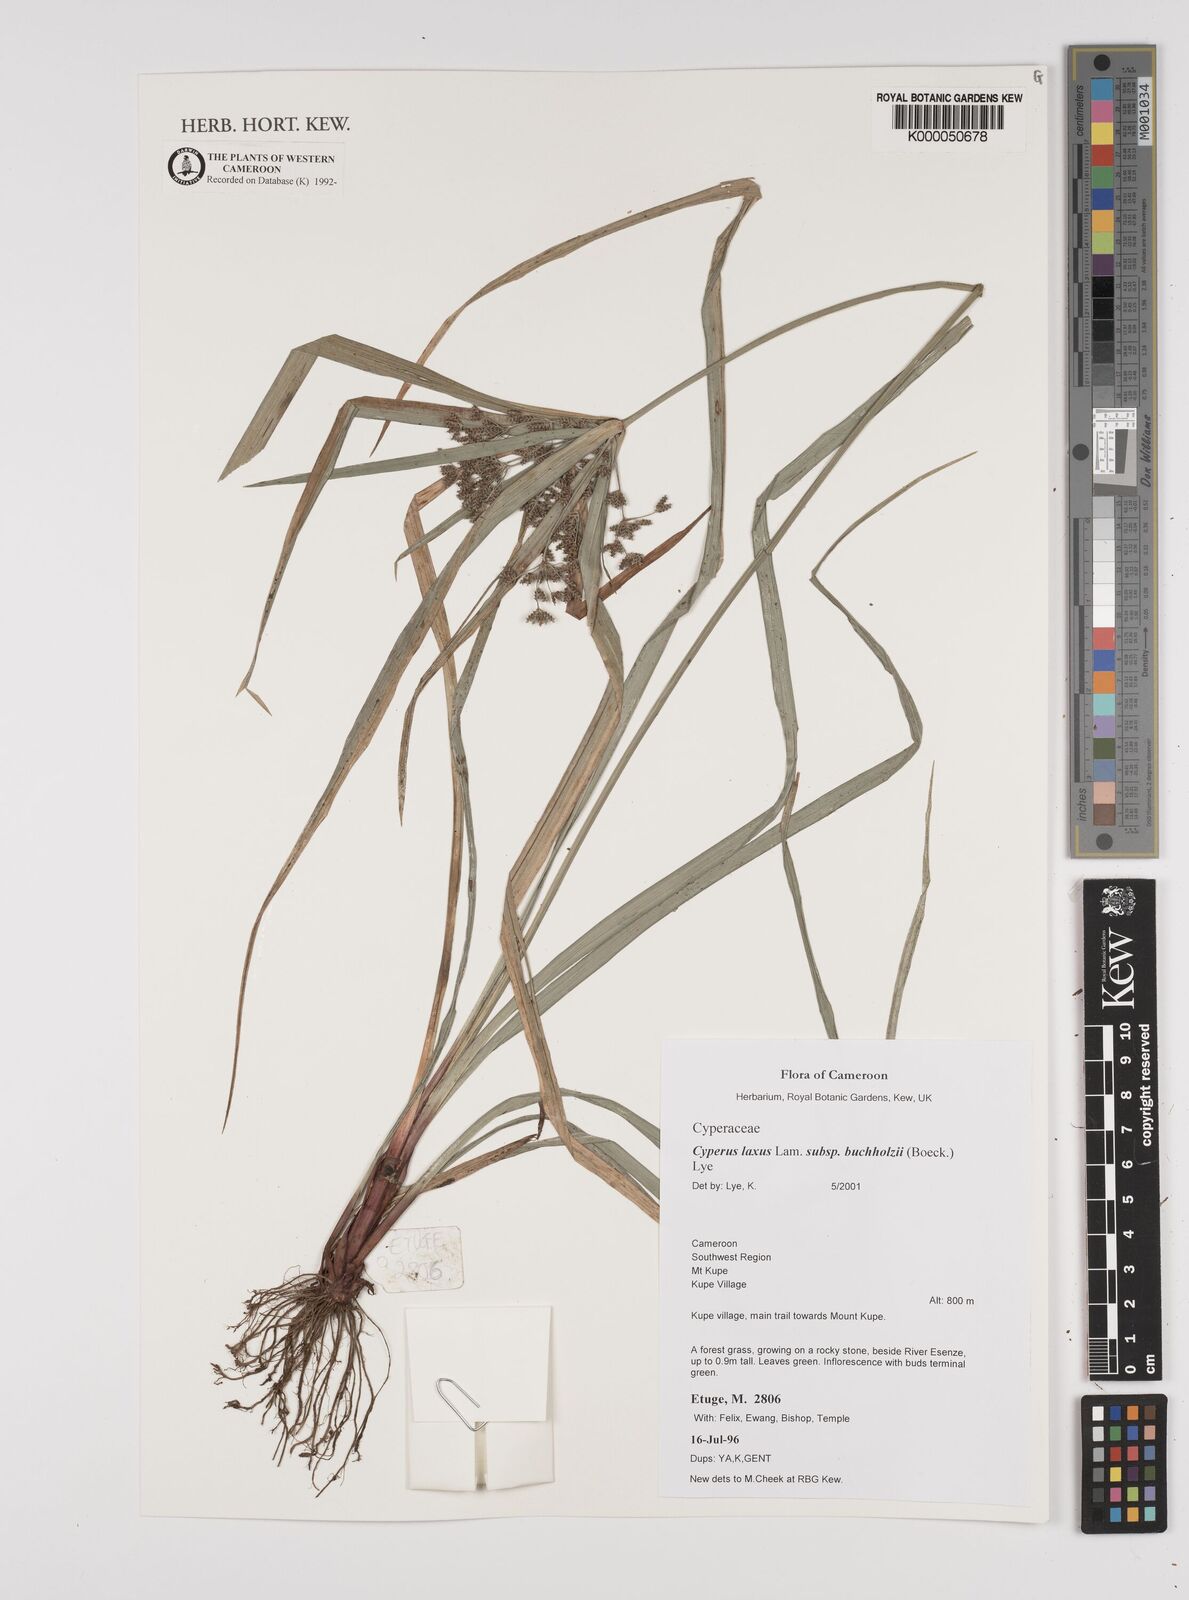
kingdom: Plantae
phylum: Tracheophyta
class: Liliopsida
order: Poales
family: Cyperaceae
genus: Cyperus
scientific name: Cyperus buchholzii
